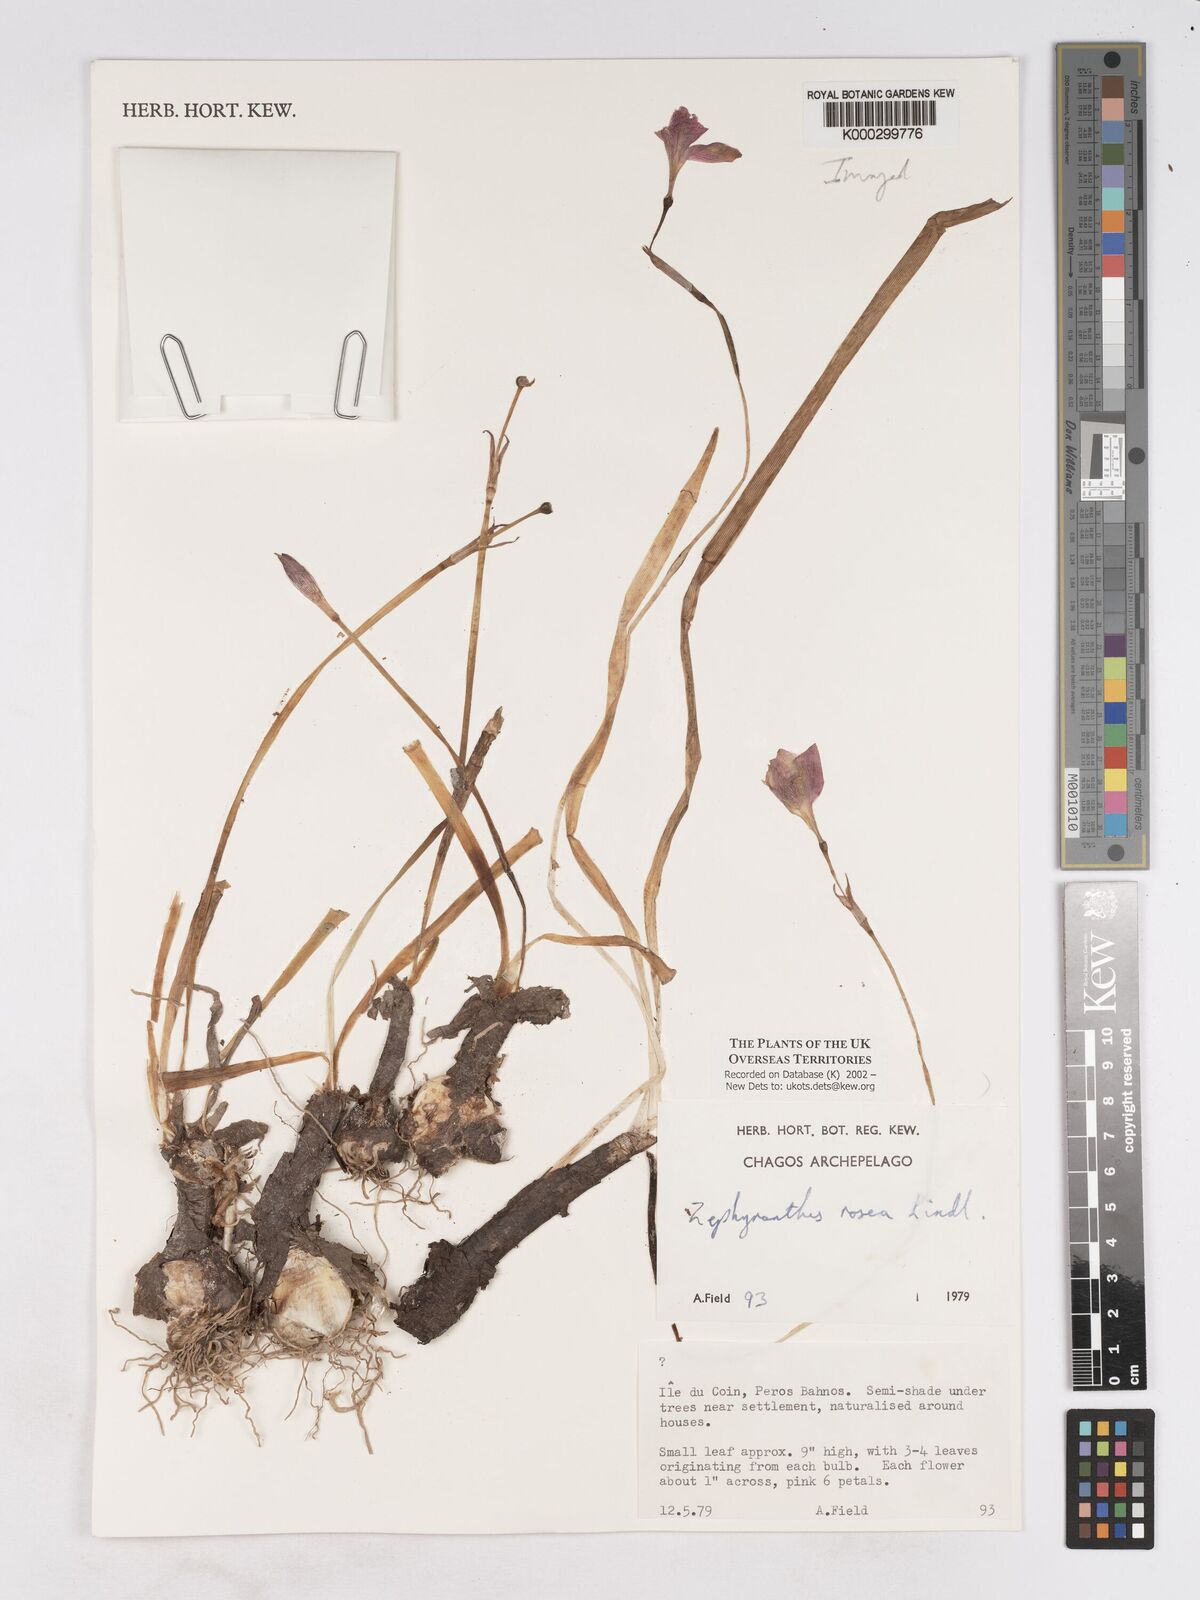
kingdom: Plantae
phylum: Tracheophyta
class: Liliopsida
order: Asparagales
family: Amaryllidaceae
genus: Zephyranthes
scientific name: Zephyranthes rosea
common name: Cuban zephyrlily
